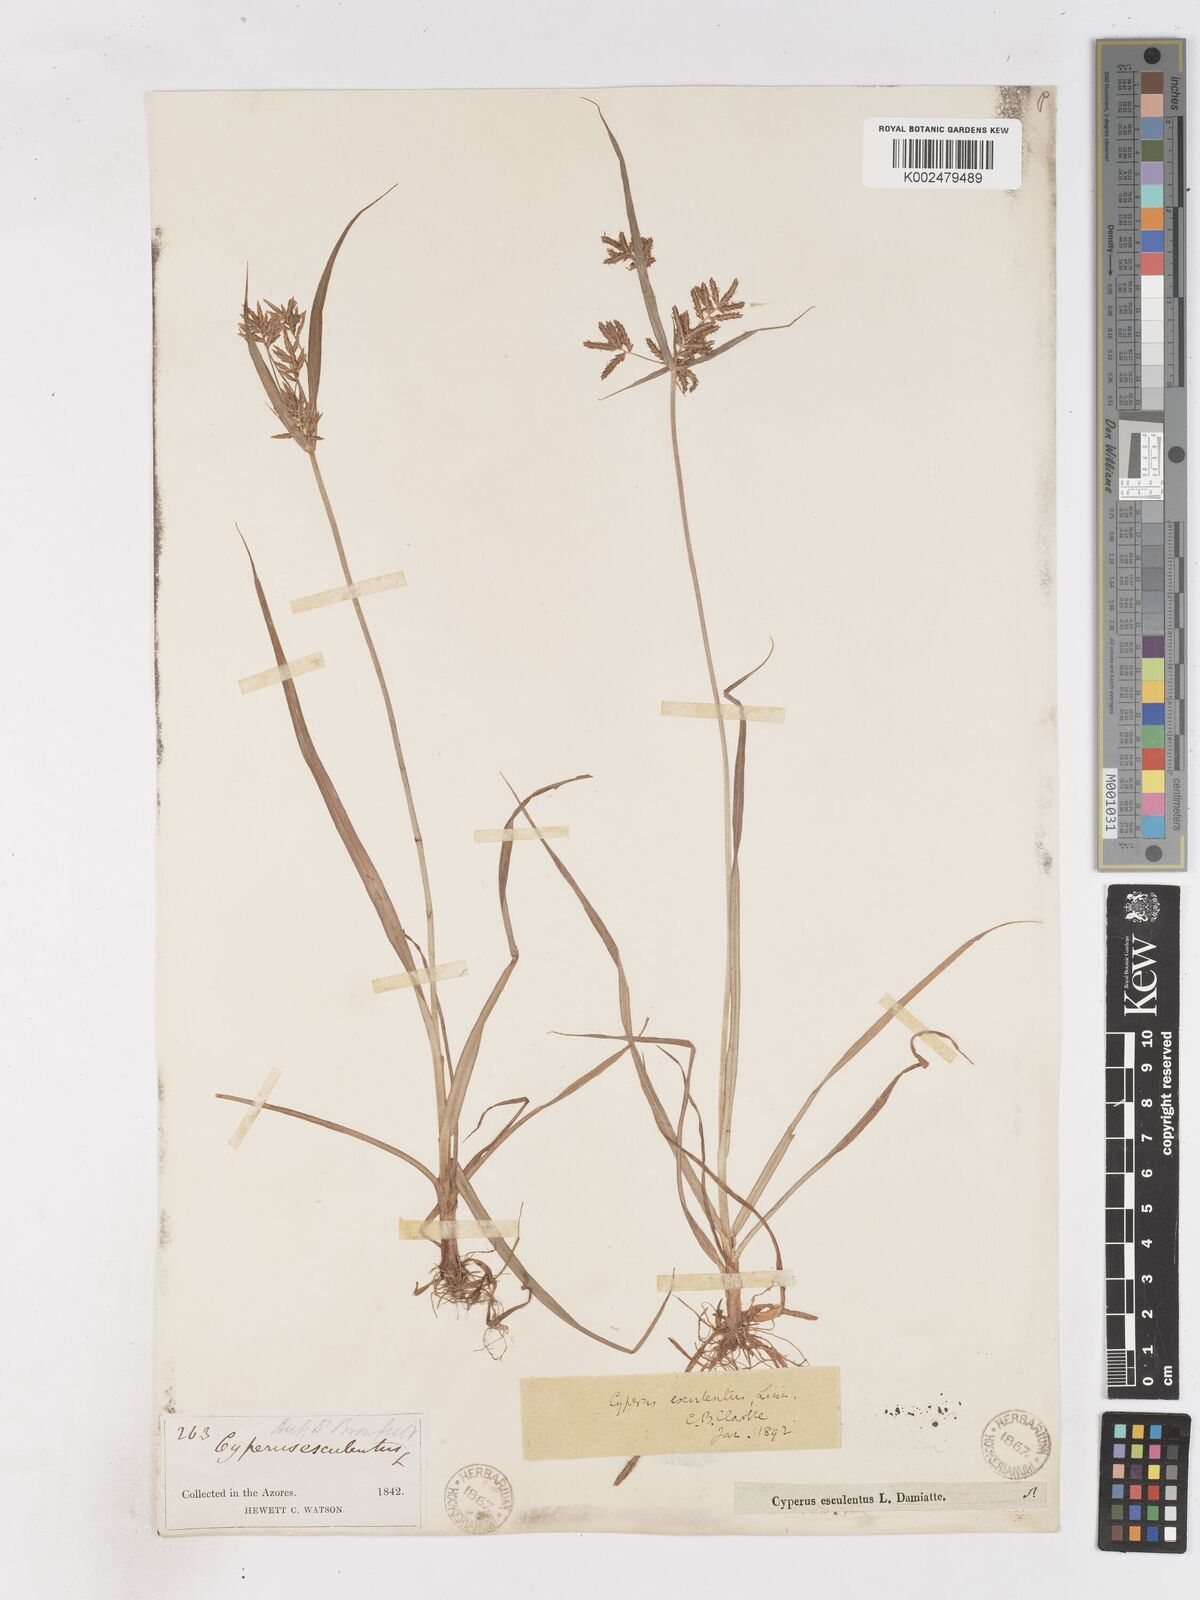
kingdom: Plantae
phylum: Tracheophyta
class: Liliopsida
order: Poales
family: Cyperaceae
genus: Cyperus
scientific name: Cyperus esculentus
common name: Yellow nutsedge
